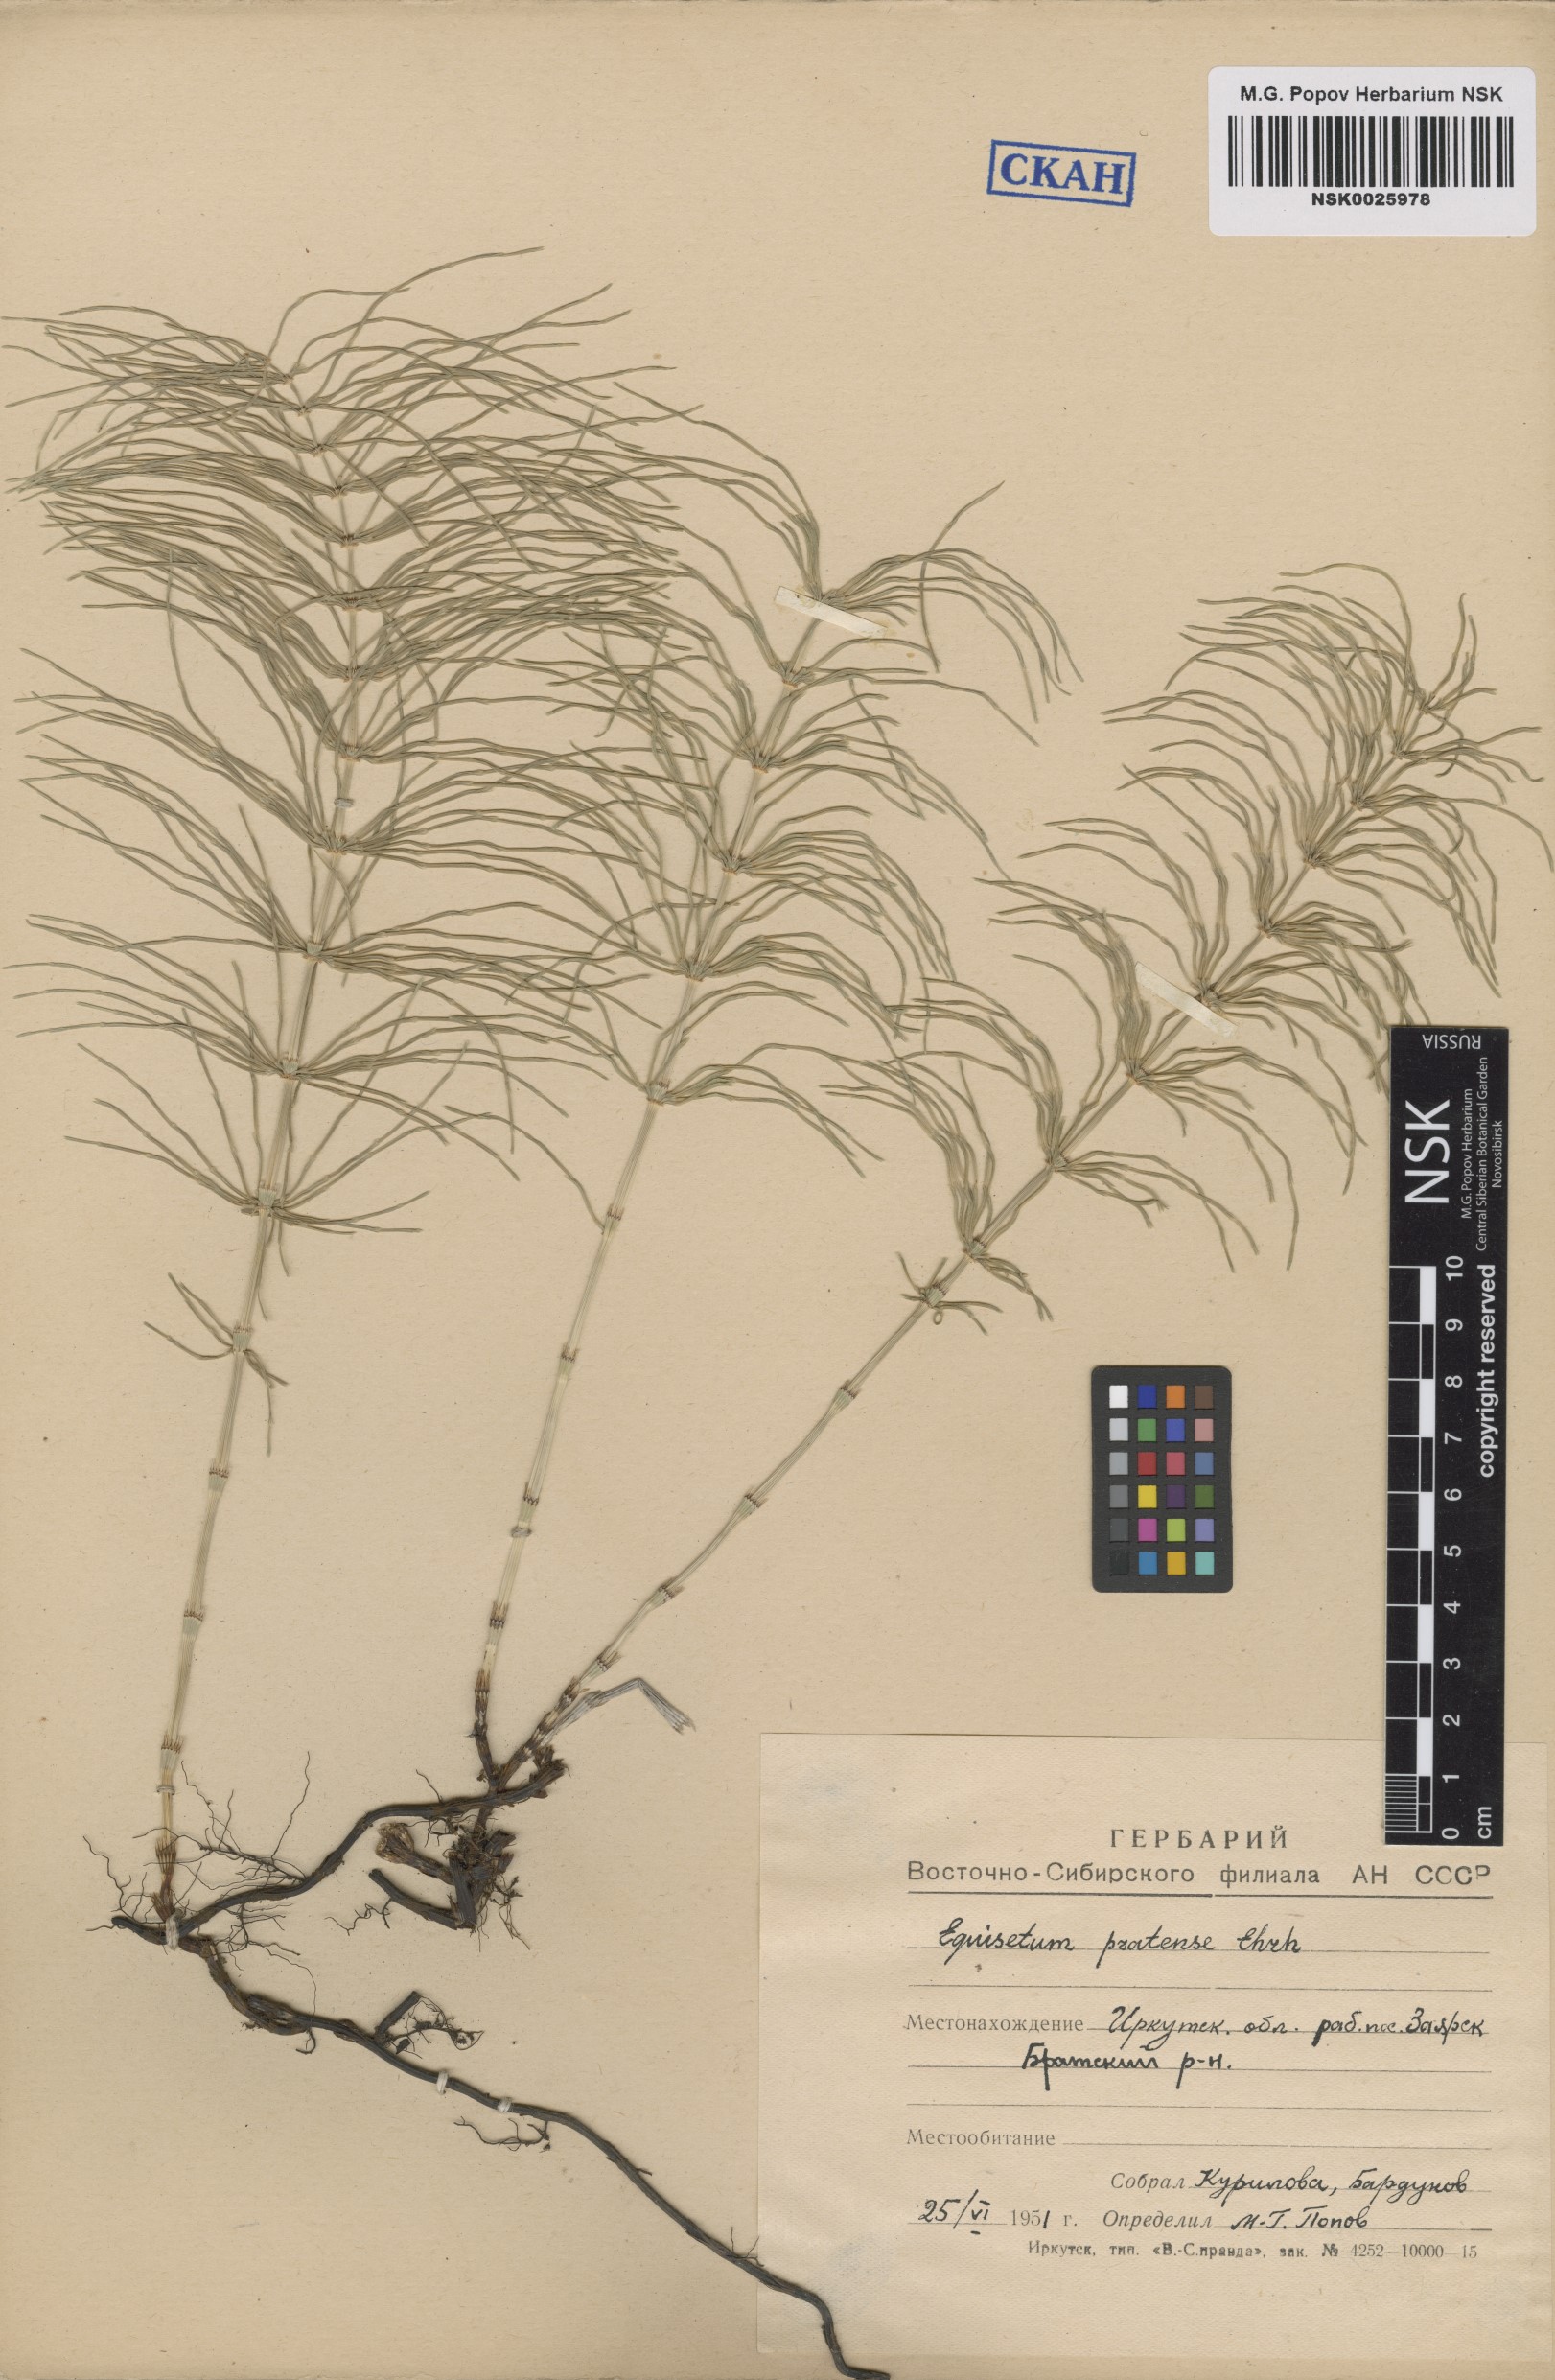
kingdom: Plantae
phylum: Tracheophyta
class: Polypodiopsida
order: Equisetales
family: Equisetaceae
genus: Equisetum
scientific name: Equisetum pratense
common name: Meadow horsetail
